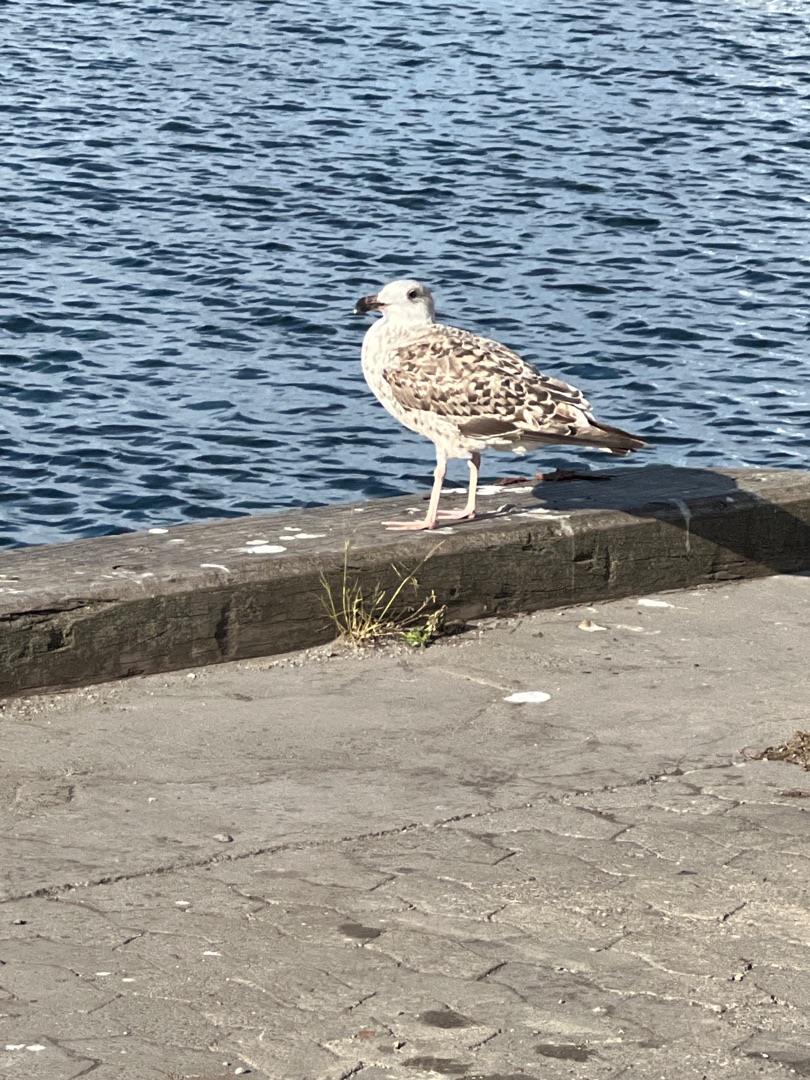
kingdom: Animalia
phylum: Chordata
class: Aves
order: Charadriiformes
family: Laridae
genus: Larus
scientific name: Larus marinus
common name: Svartbag
